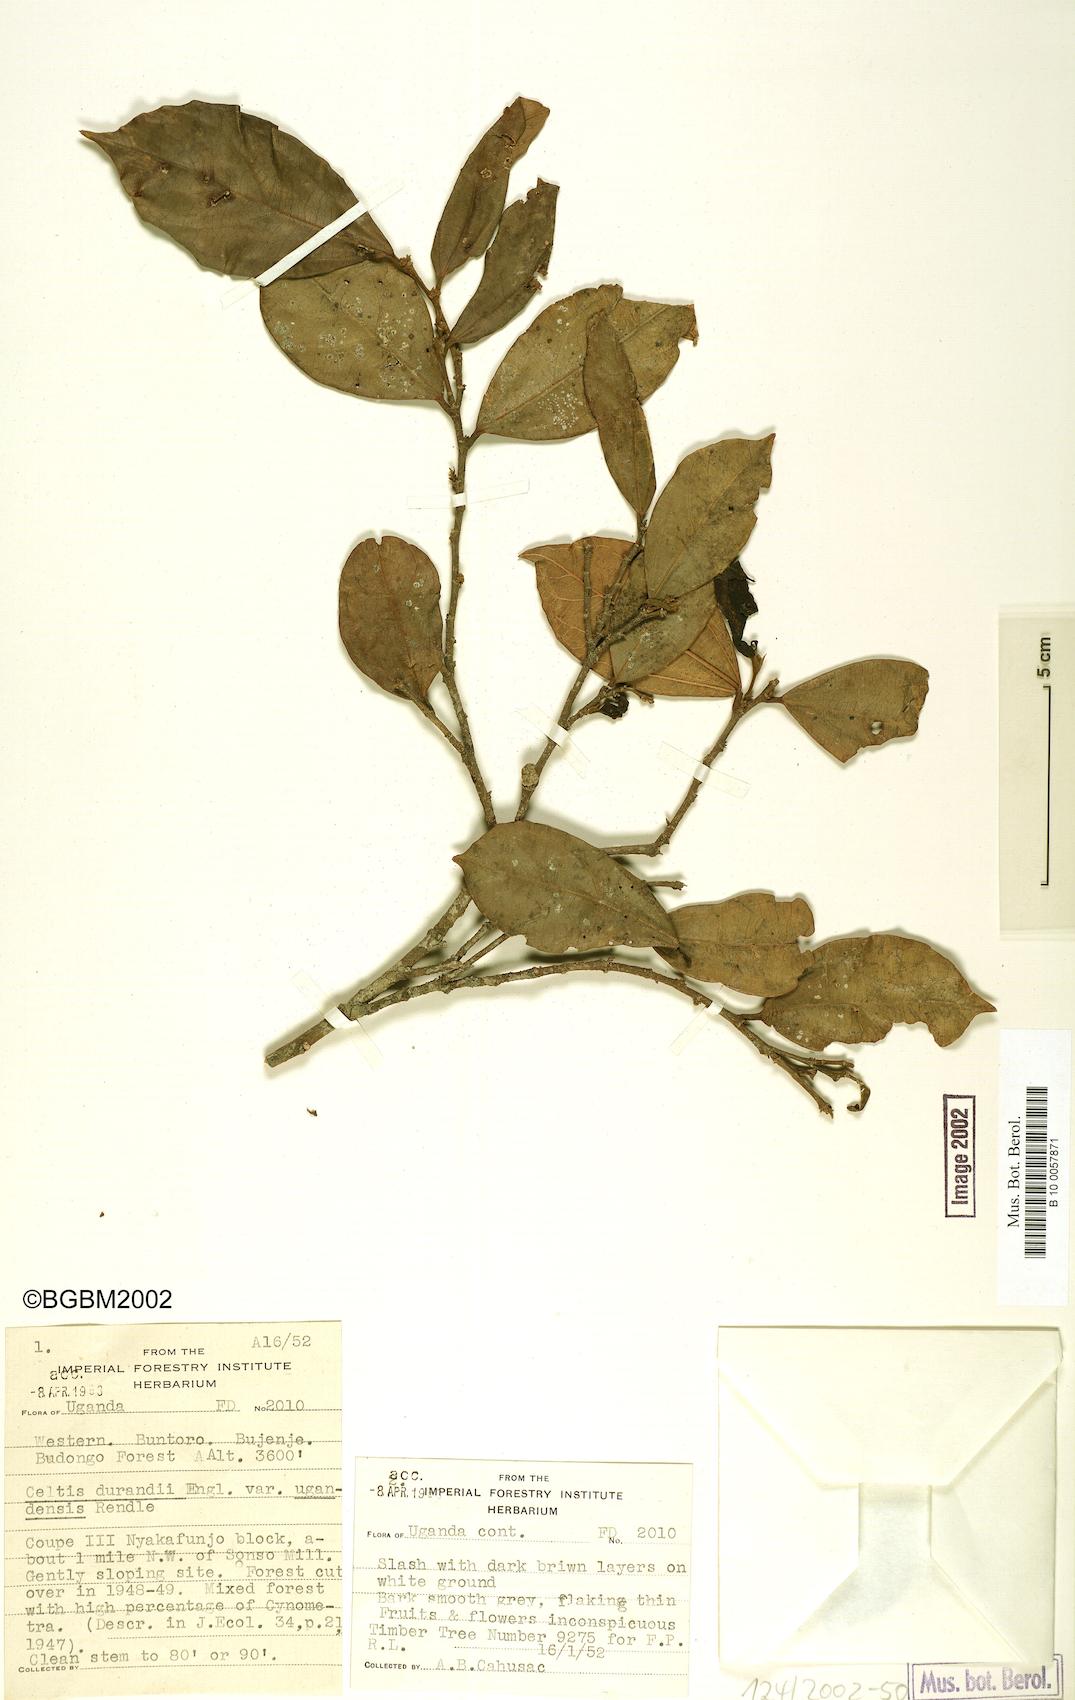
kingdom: Plantae
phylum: Tracheophyta
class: Magnoliopsida
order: Rosales
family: Cannabaceae
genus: Celtis
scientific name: Celtis gomphophylla
